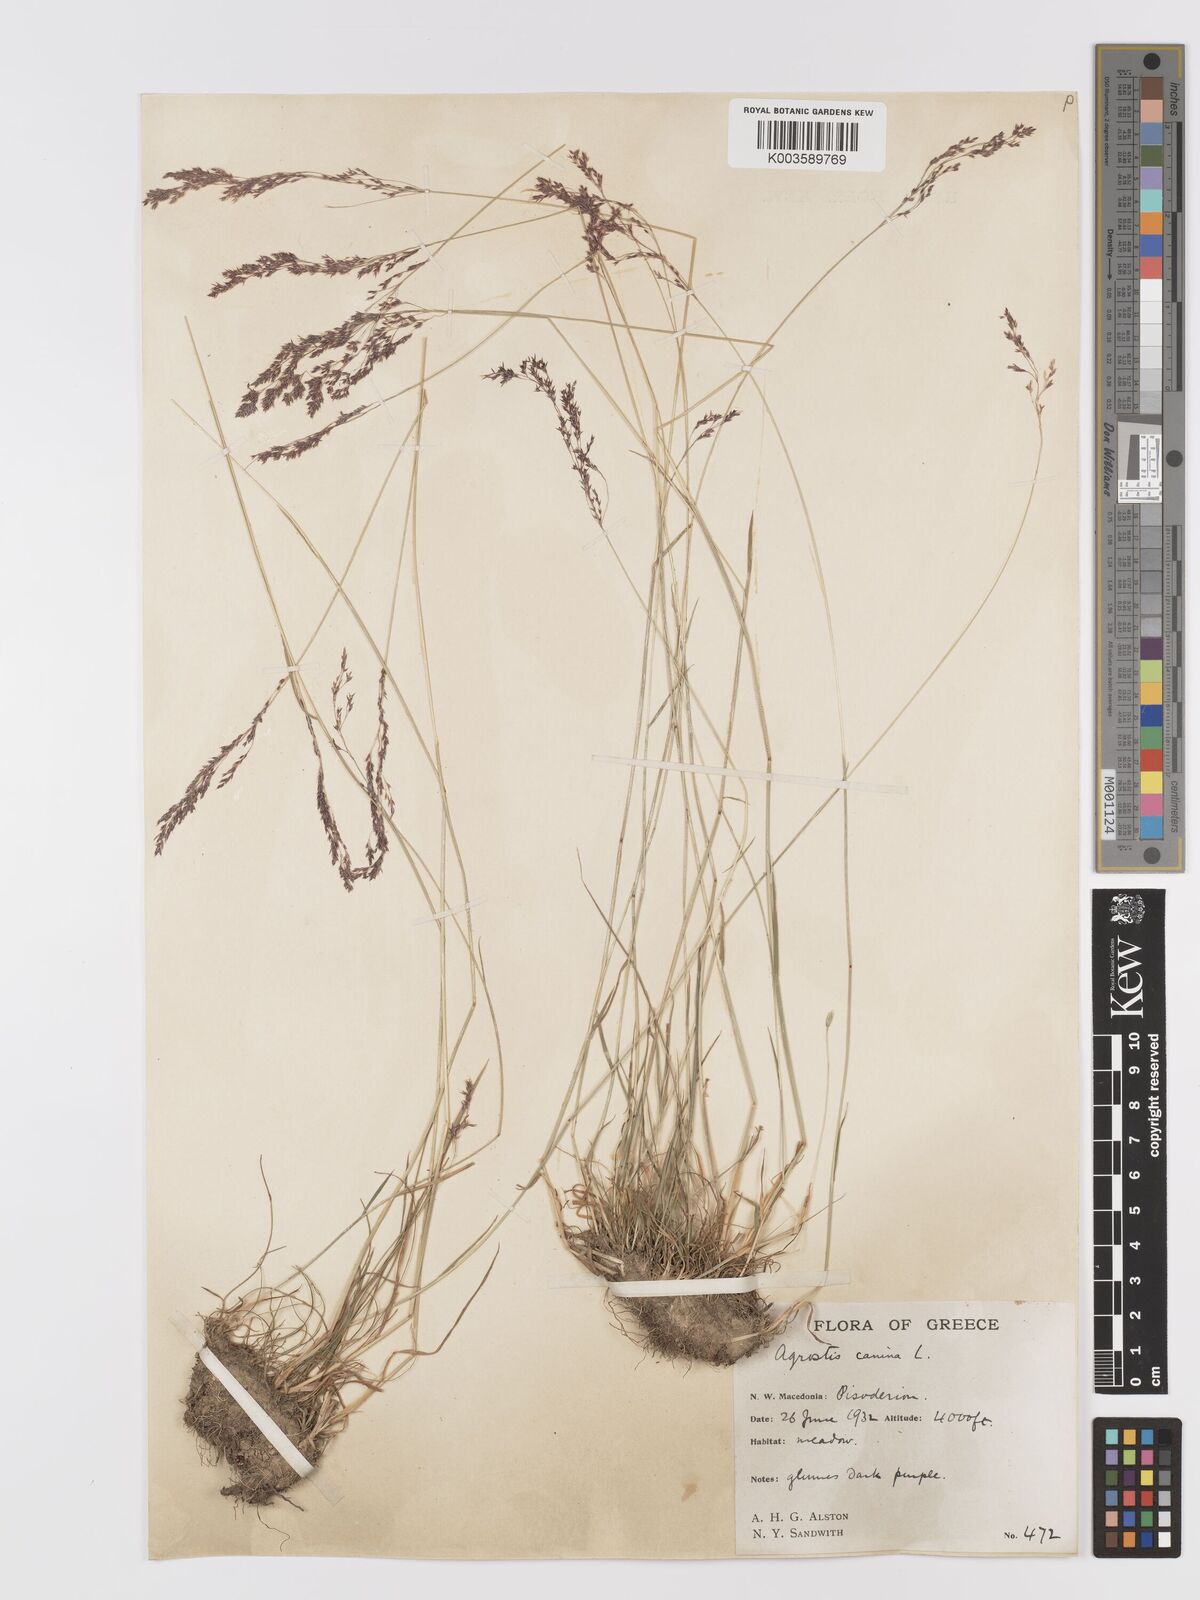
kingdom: Plantae
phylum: Tracheophyta
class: Liliopsida
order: Poales
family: Poaceae
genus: Agrostis
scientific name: Agrostis
